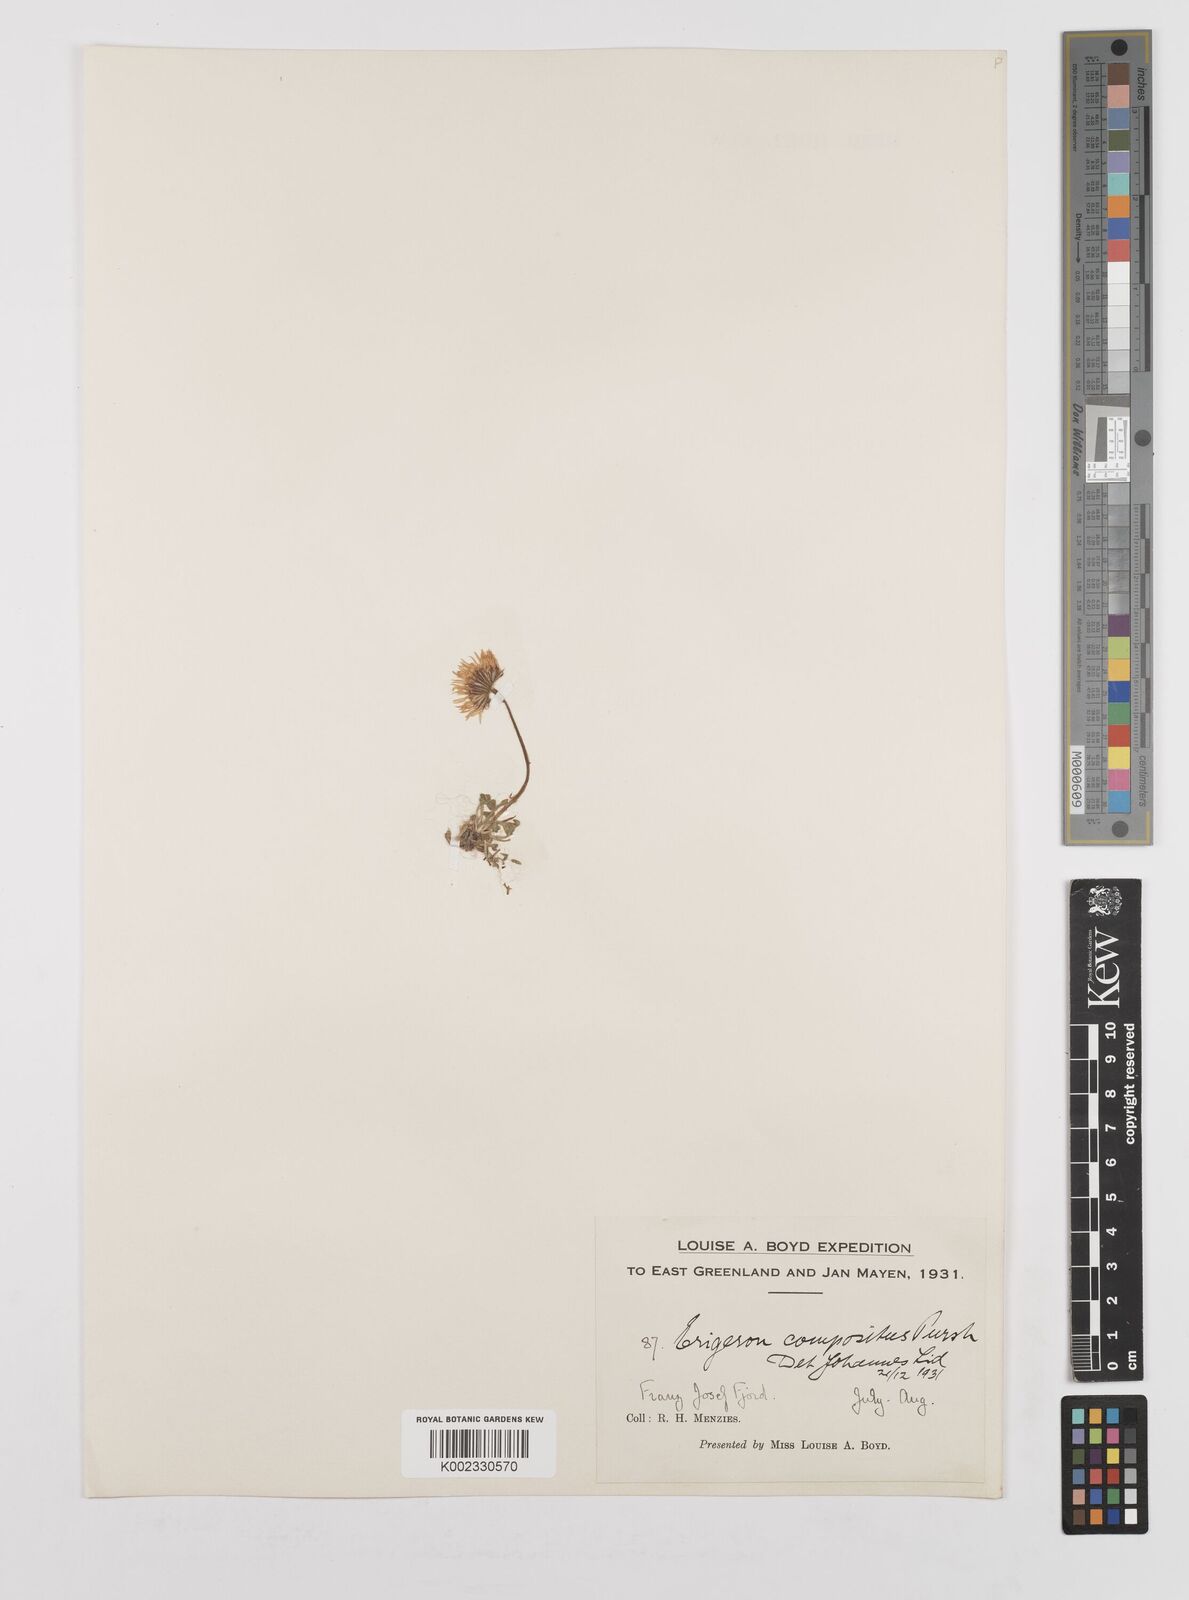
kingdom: Plantae
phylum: Tracheophyta
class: Magnoliopsida
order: Asterales
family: Asteraceae
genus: Erigeron
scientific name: Erigeron compositus
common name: Dwarf mountain fleabane
